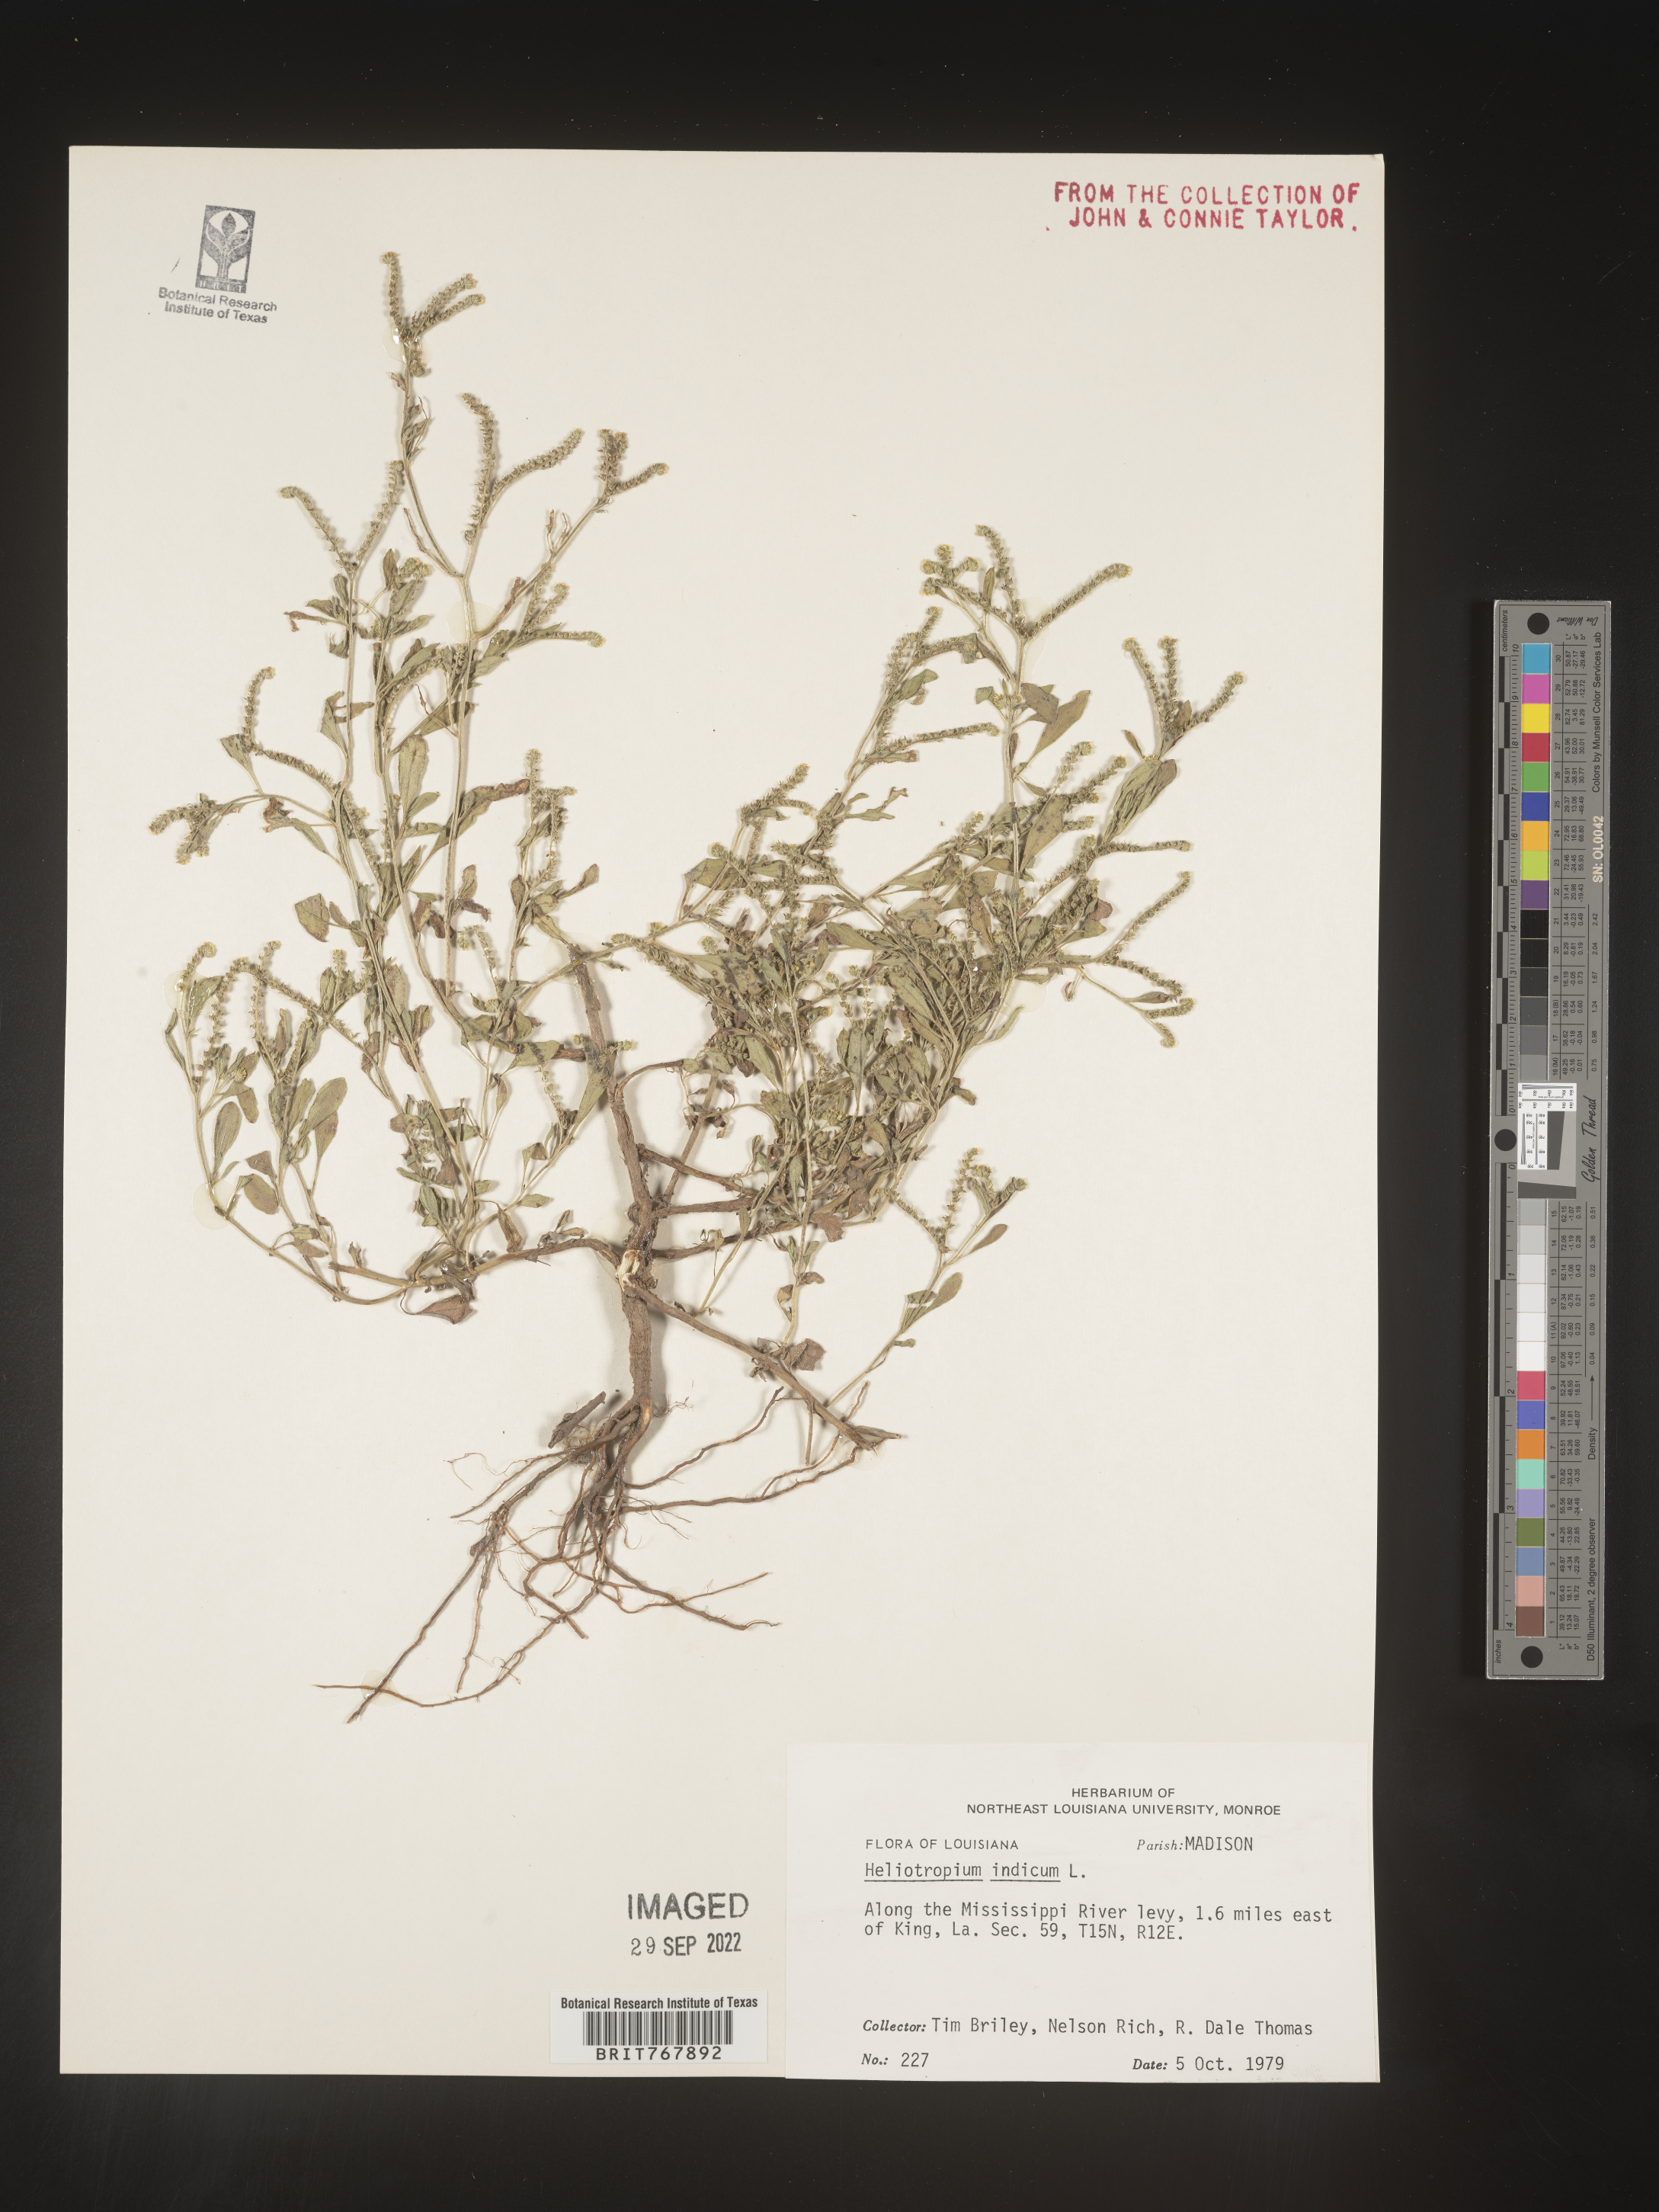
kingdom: Plantae
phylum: Tracheophyta
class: Magnoliopsida
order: Boraginales
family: Heliotropiaceae
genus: Heliotropium
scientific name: Heliotropium indicum
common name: Indian heliotrope
